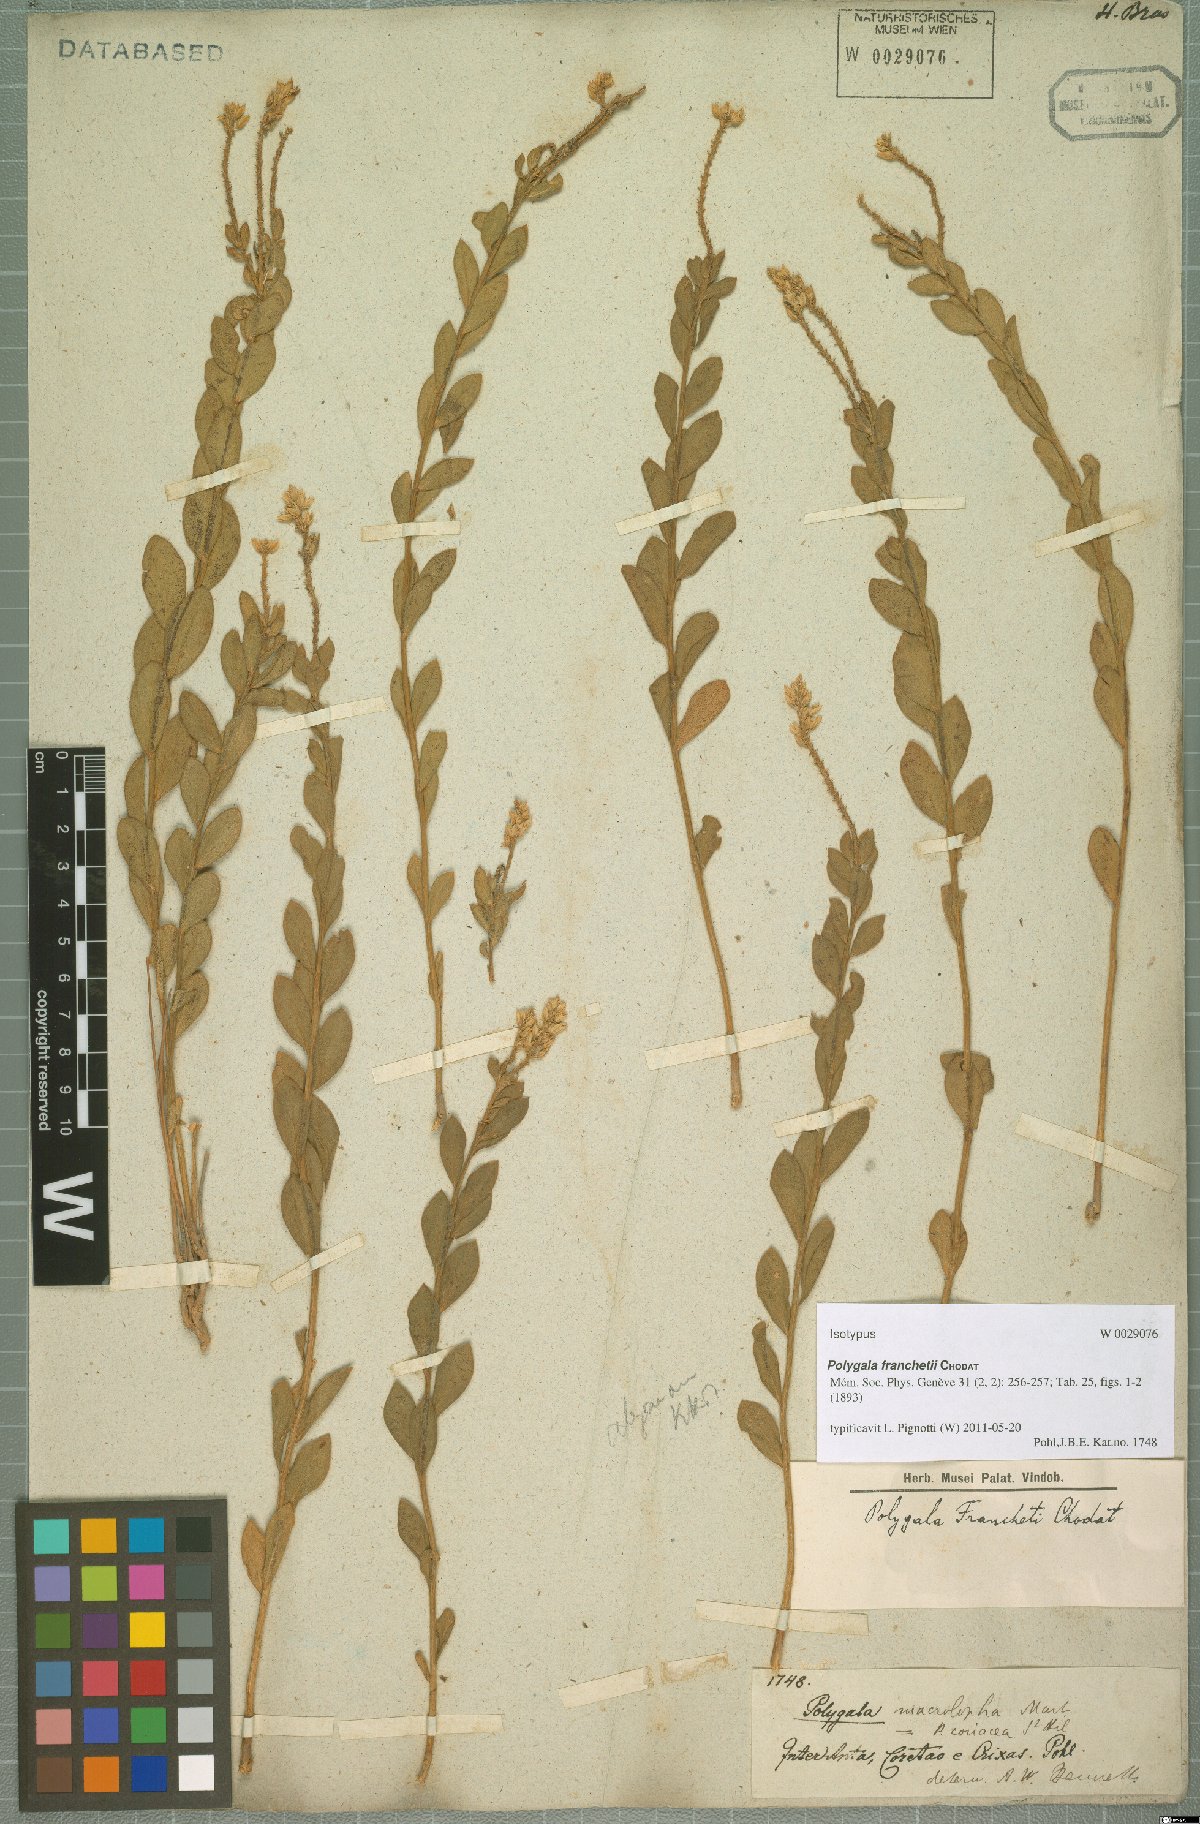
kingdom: Plantae
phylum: Tracheophyta
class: Magnoliopsida
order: Fabales
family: Polygalaceae
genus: Polygala
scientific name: Polygala franchetii
